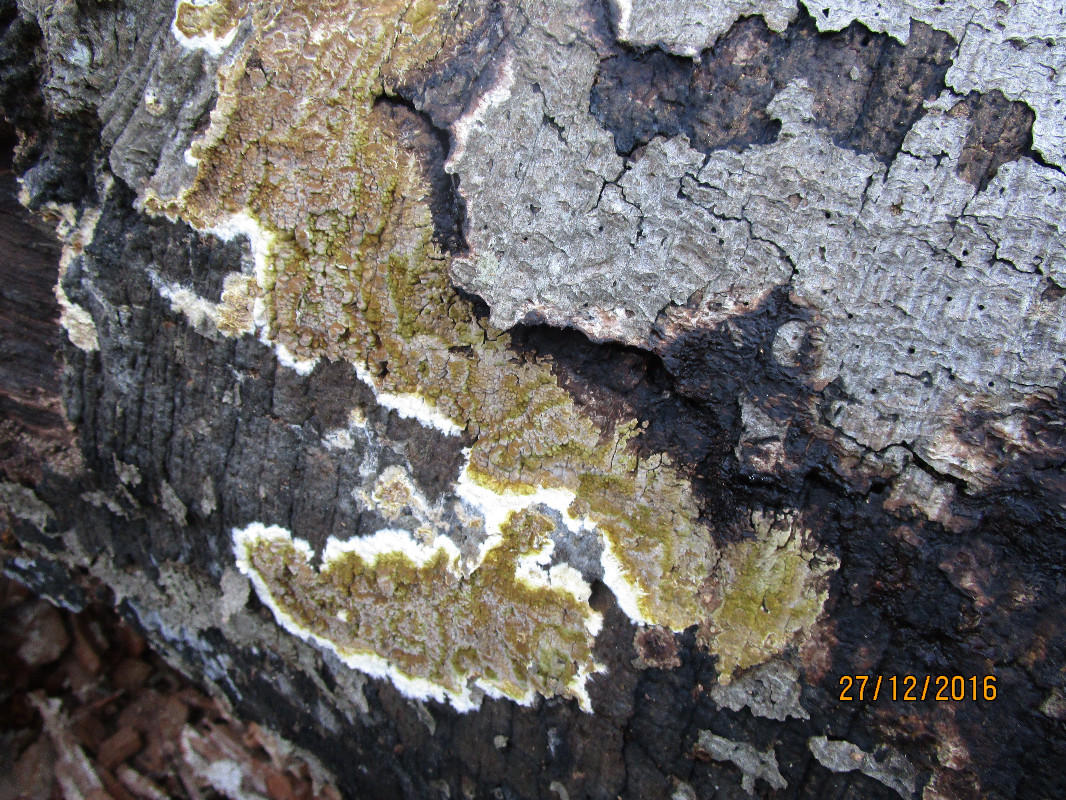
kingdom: Fungi
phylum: Basidiomycota
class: Agaricomycetes
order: Boletales
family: Coniophoraceae
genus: Coniophora
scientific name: Coniophora puteana
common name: gul tømmersvamp
